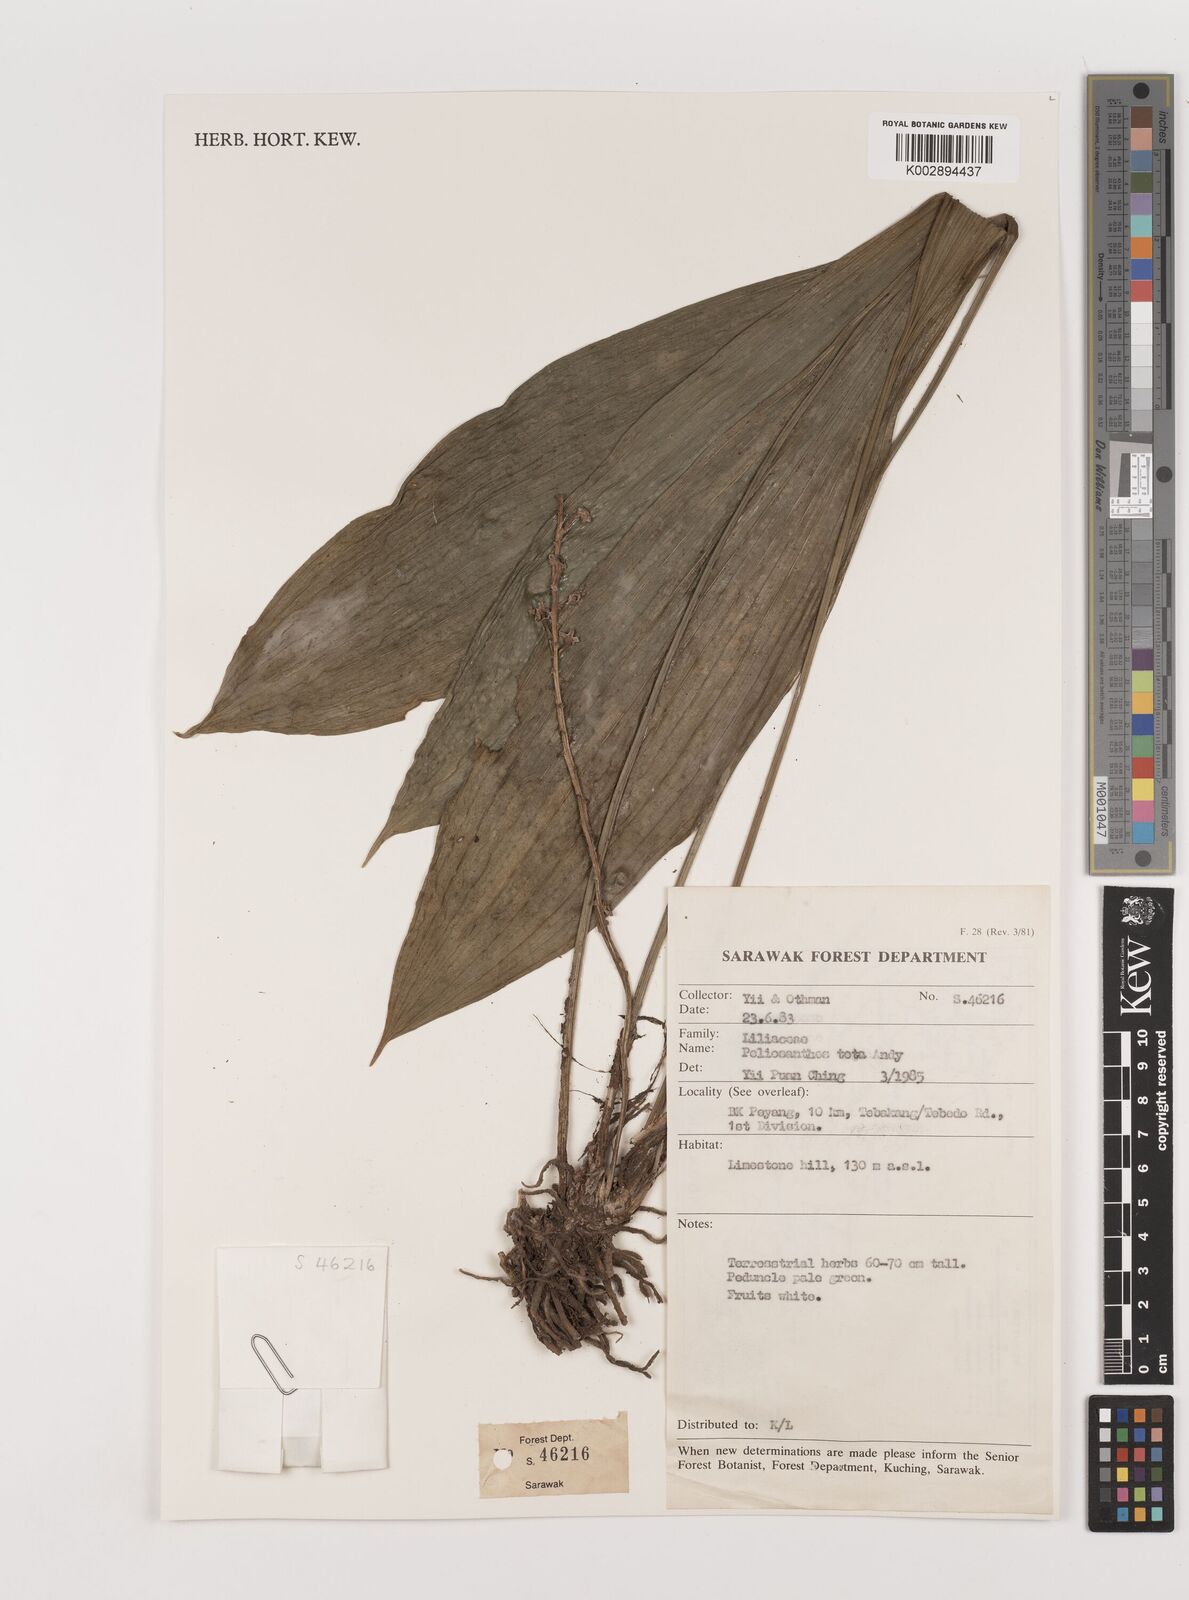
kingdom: Plantae
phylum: Tracheophyta
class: Liliopsida
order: Asparagales
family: Asparagaceae
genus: Peliosanthes
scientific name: Peliosanthes teta
